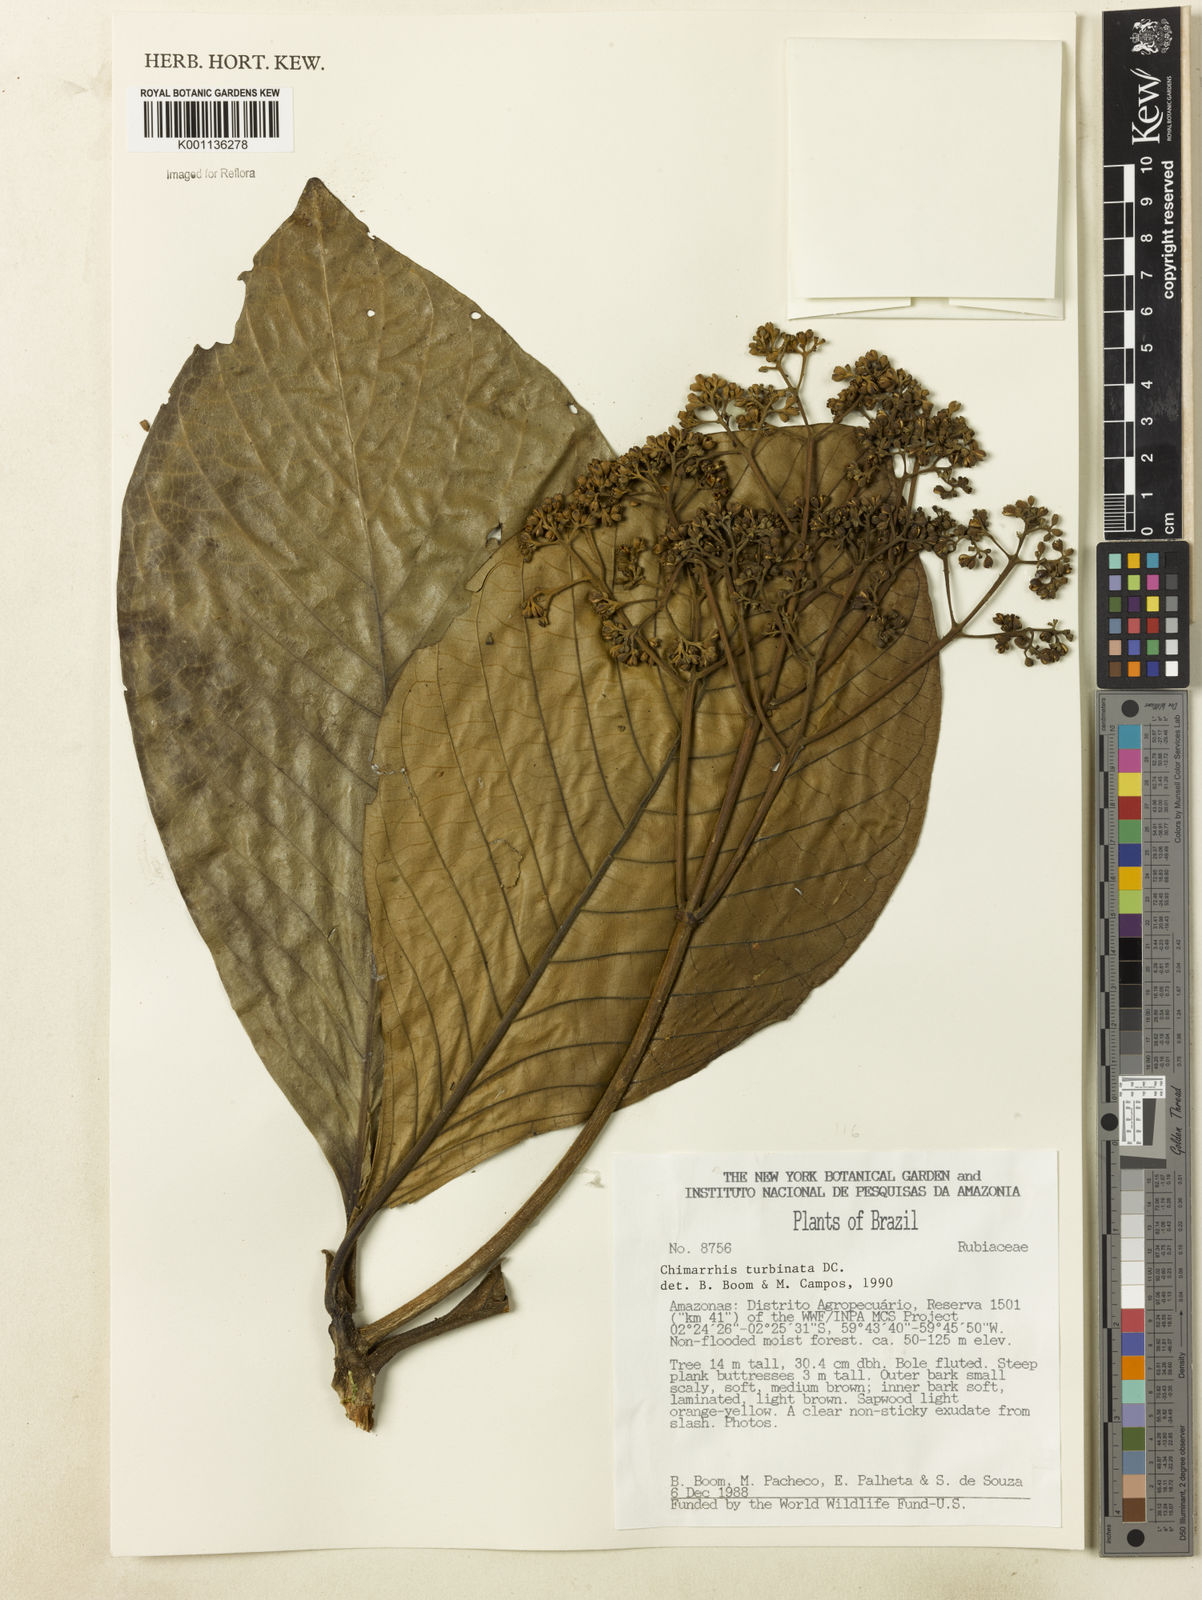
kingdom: Plantae
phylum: Tracheophyta
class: Magnoliopsida
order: Gentianales
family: Rubiaceae
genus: Chimarrhis
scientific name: Chimarrhis turbinata
